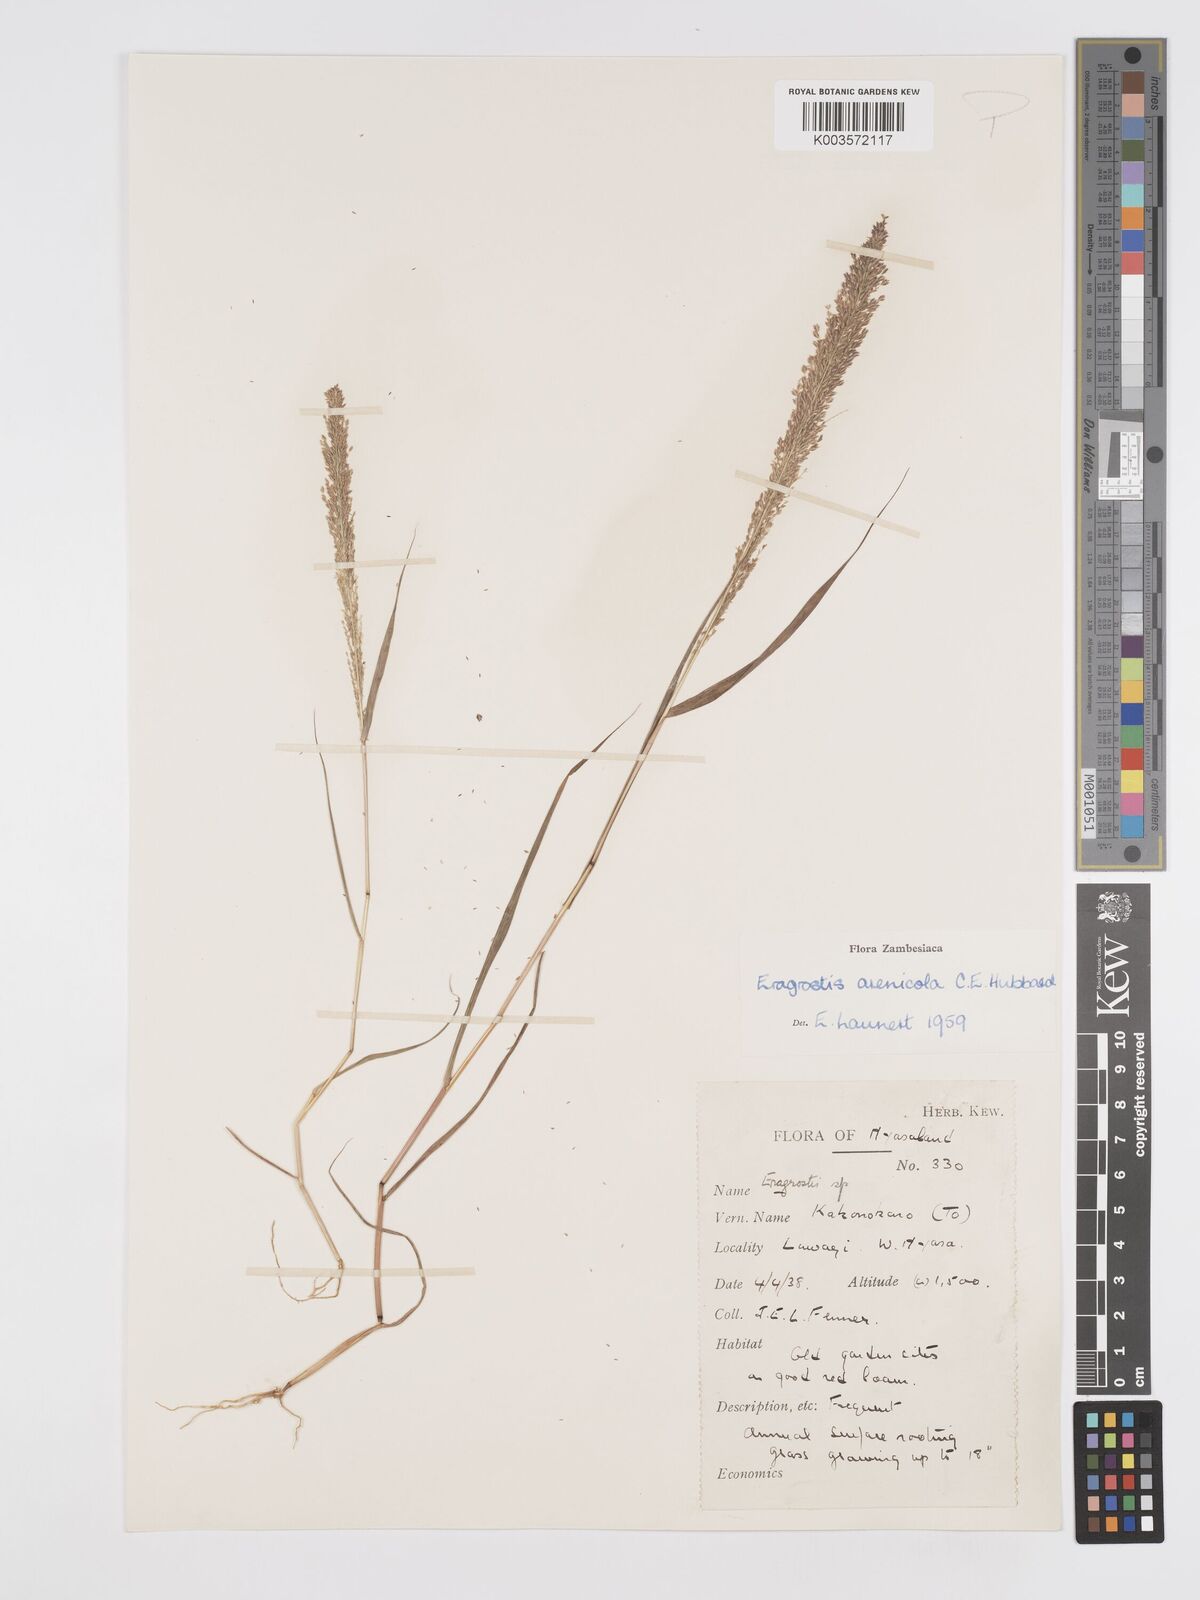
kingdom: Plantae
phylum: Tracheophyta
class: Liliopsida
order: Poales
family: Poaceae
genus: Eragrostis
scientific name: Eragrostis arenicola
